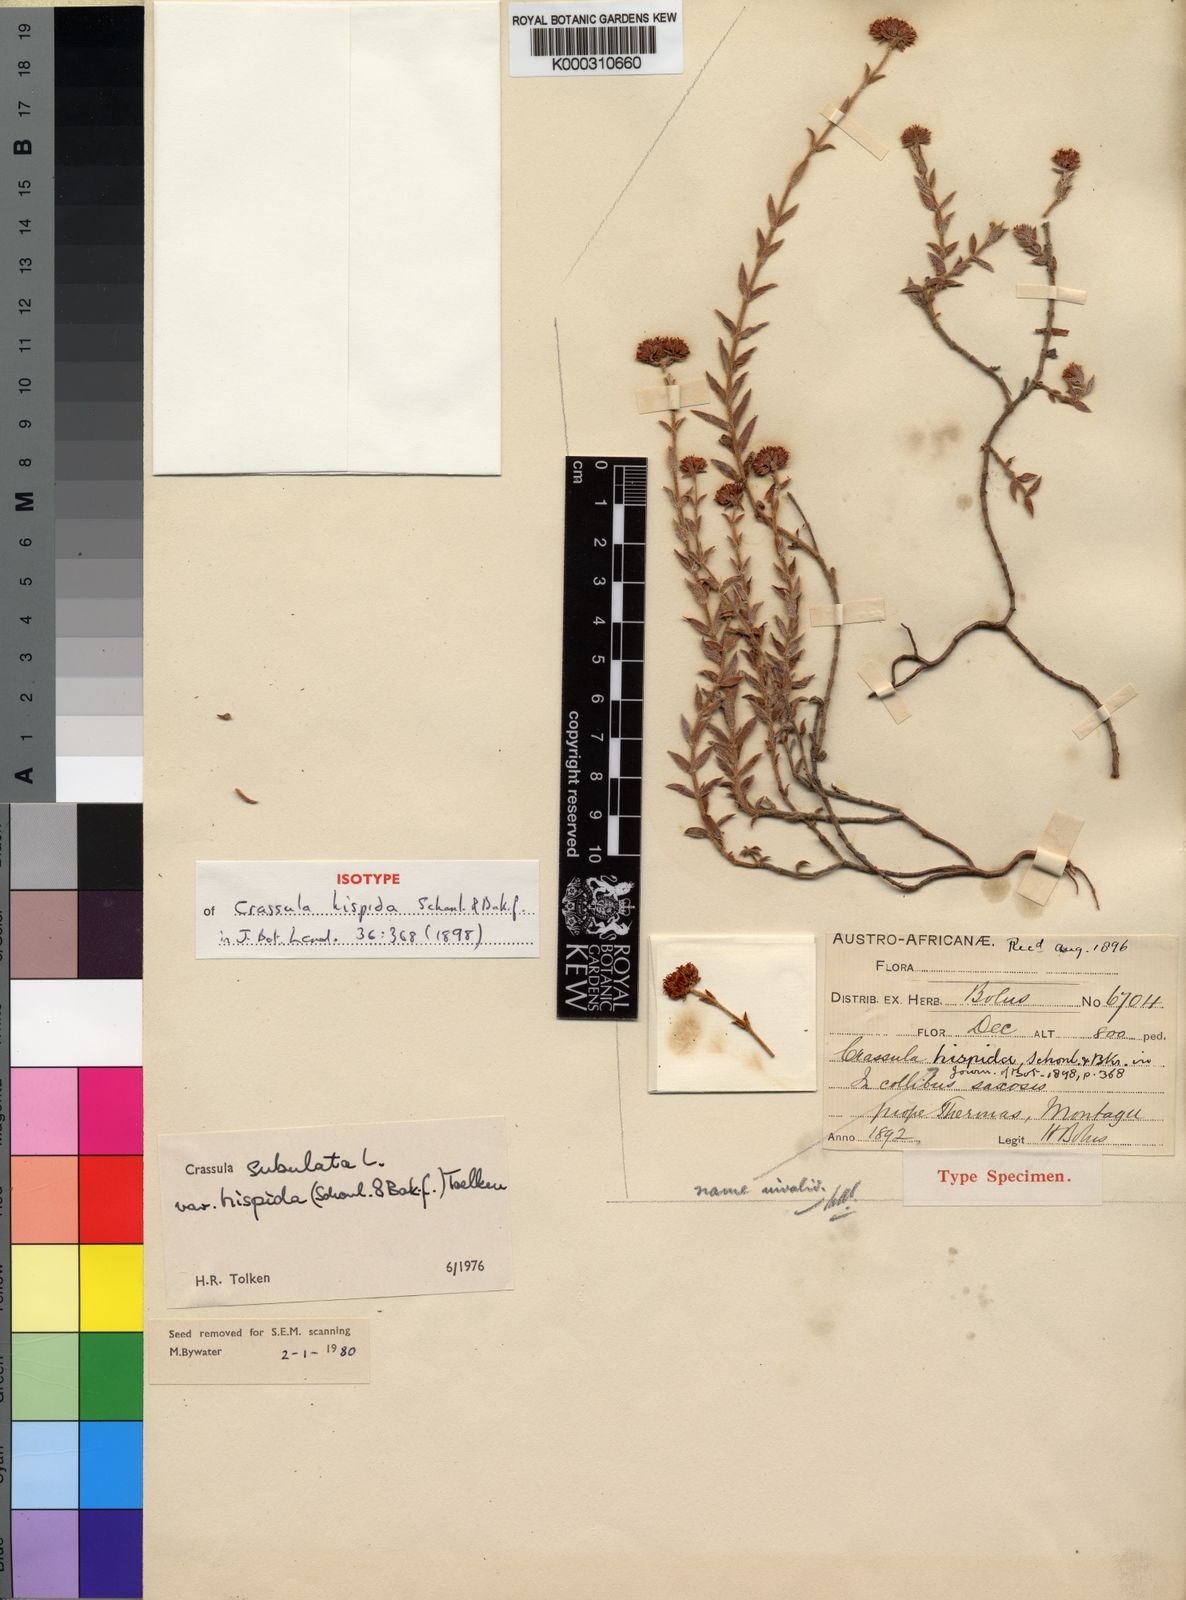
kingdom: Plantae
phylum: Tracheophyta
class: Magnoliopsida
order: Saxifragales
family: Crassulaceae
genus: Crassula
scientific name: Crassula subulata
